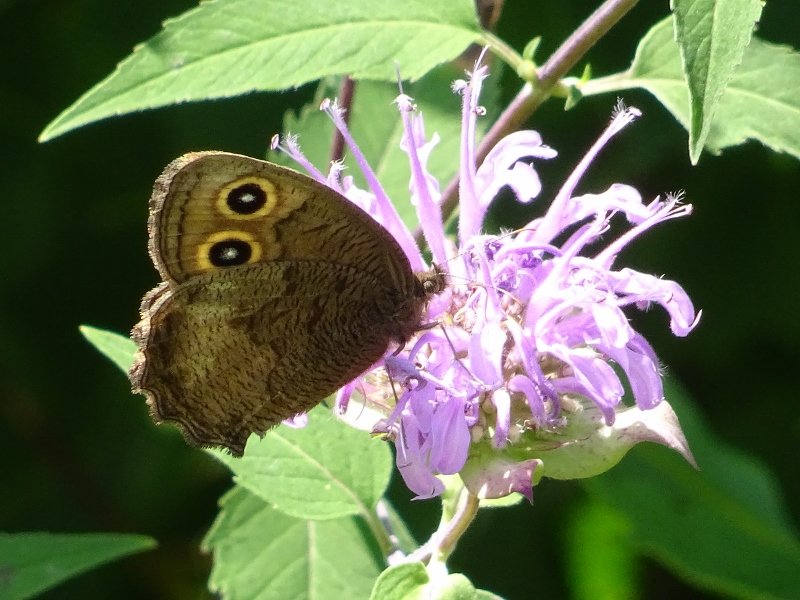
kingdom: Animalia
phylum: Arthropoda
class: Insecta
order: Lepidoptera
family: Nymphalidae
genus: Cercyonis
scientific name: Cercyonis pegala
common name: Common Wood-Nymph
